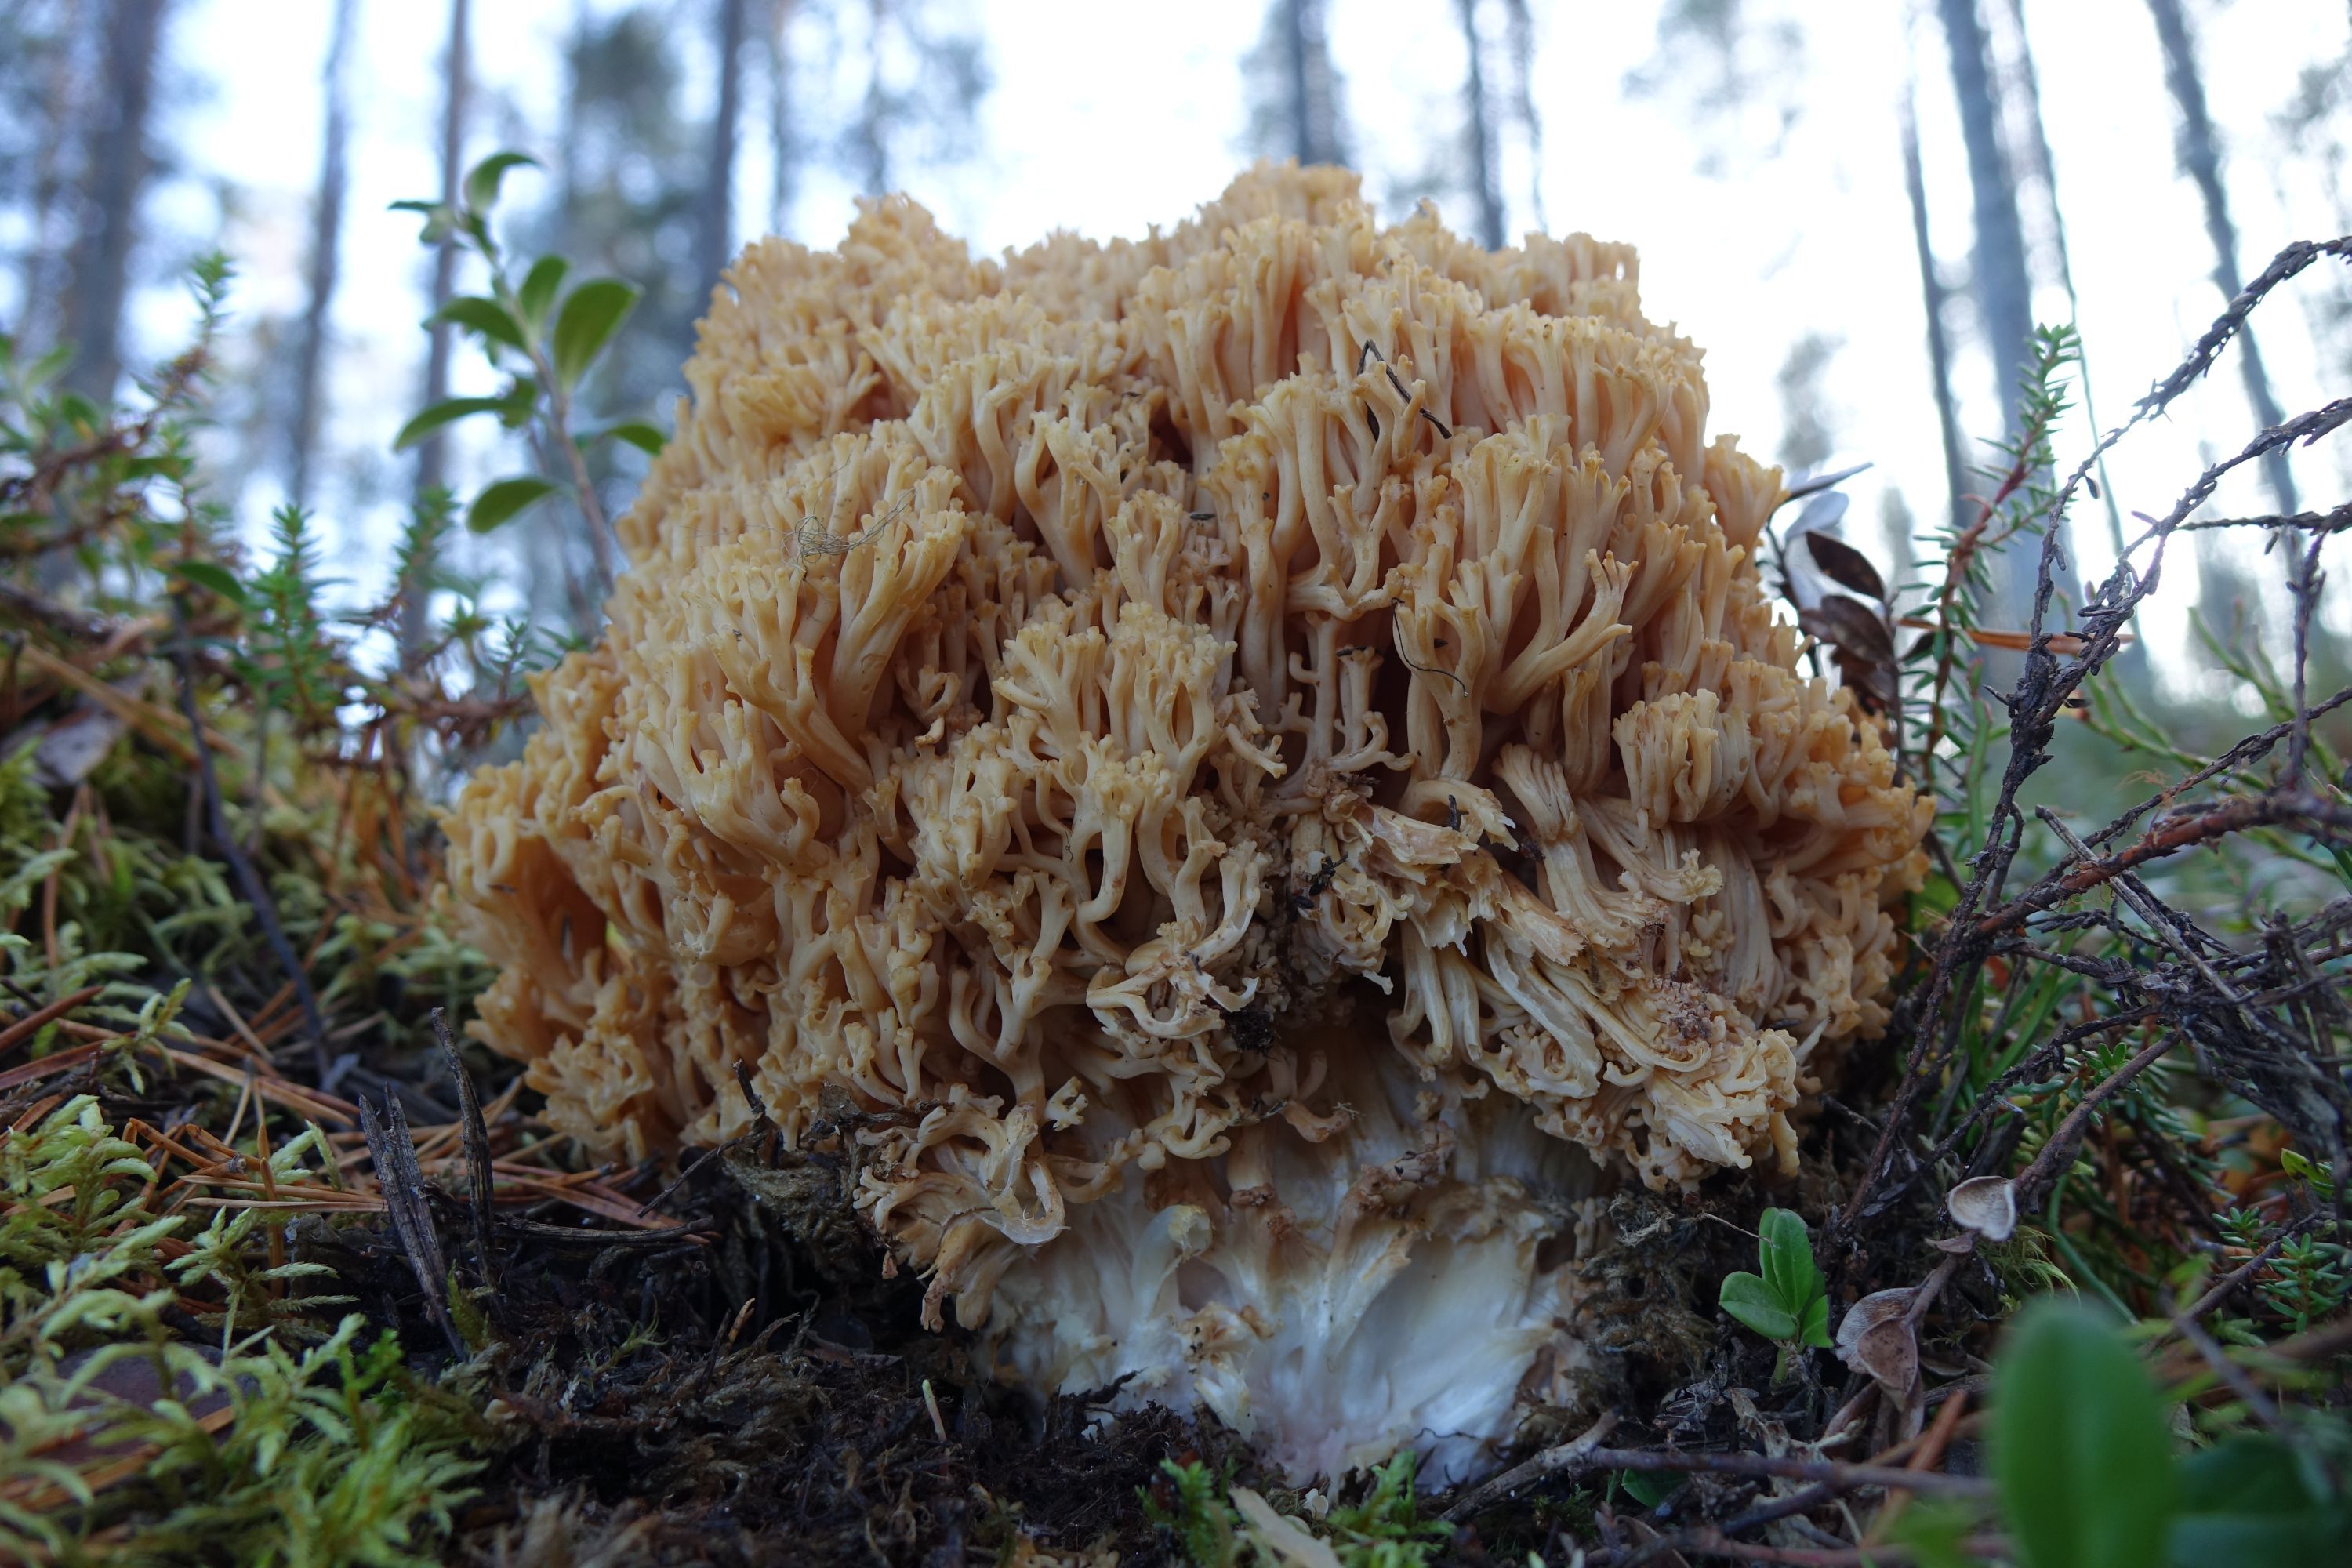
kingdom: Fungi
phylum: Basidiomycota
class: Agaricomycetes
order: Gomphales
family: Gomphaceae
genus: Ramaria
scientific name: Ramaria boreimaxima
